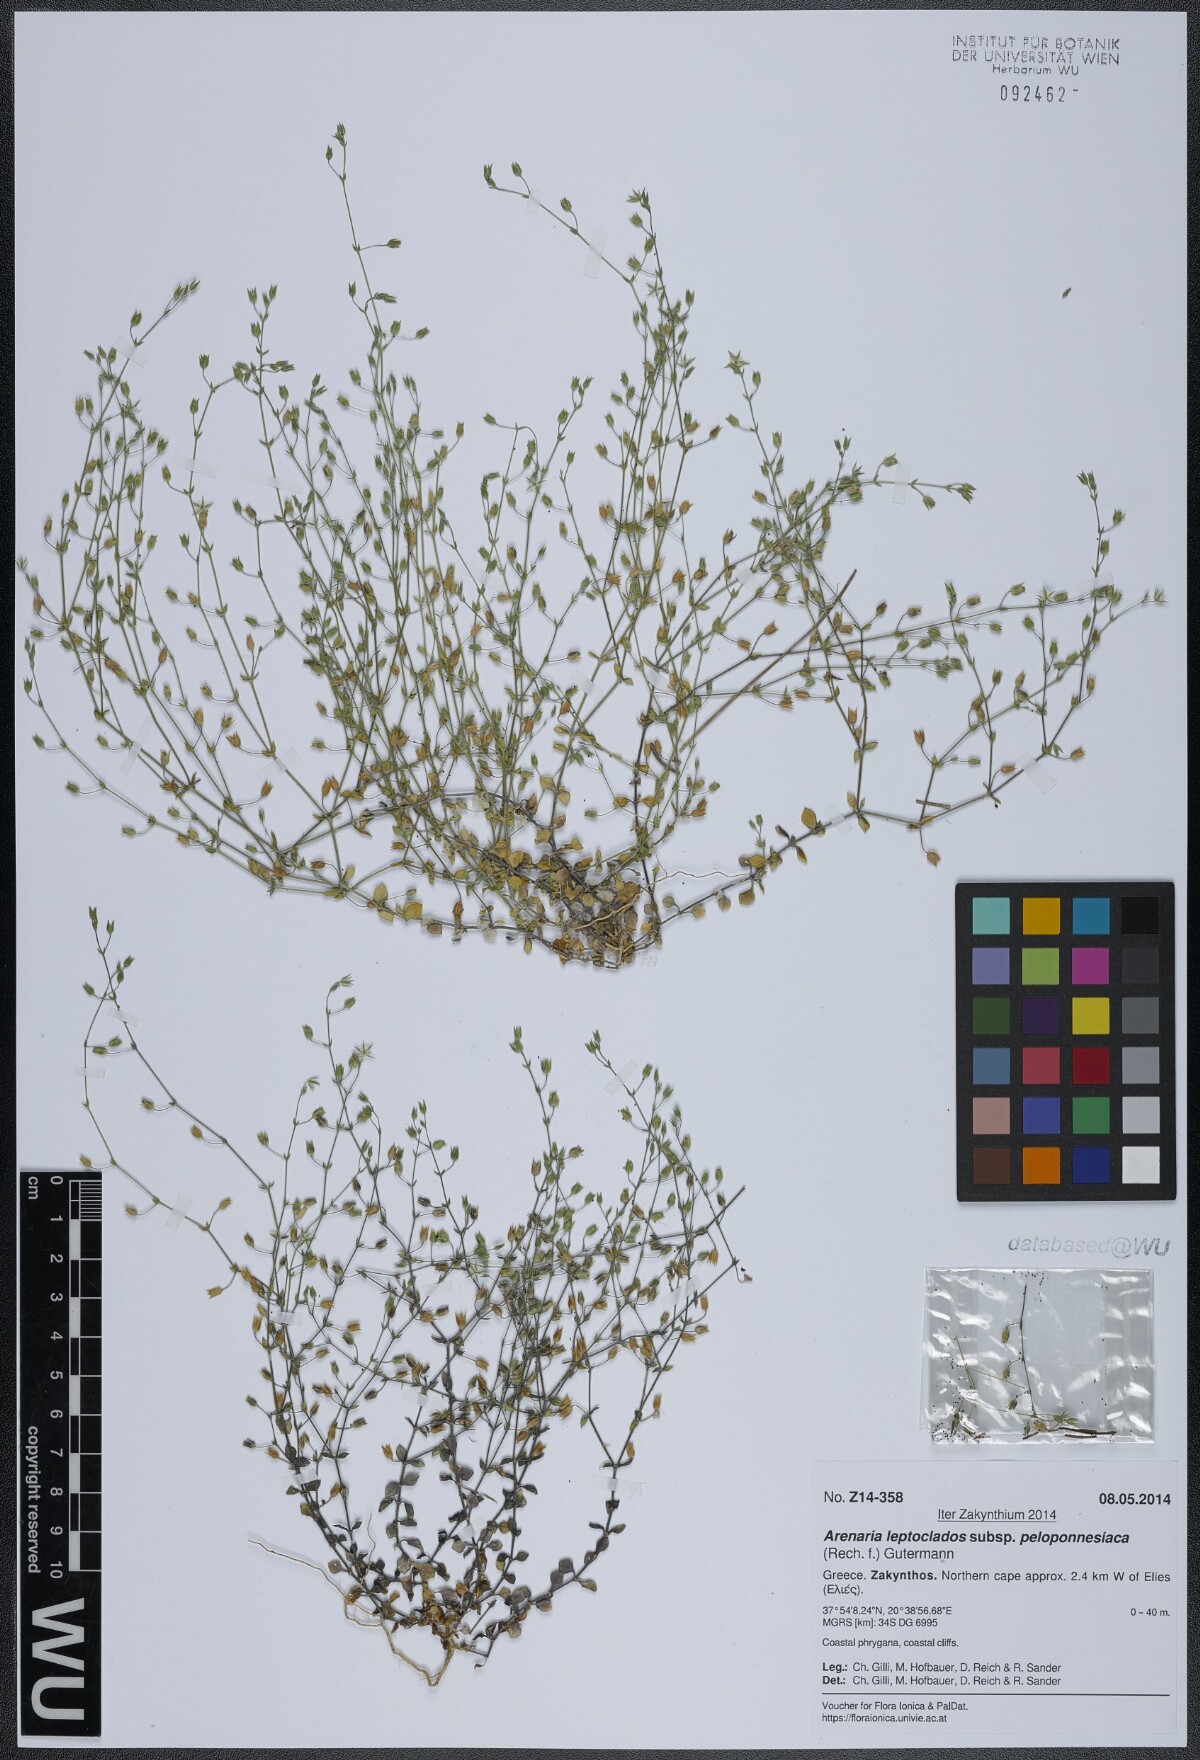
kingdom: Plantae
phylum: Tracheophyta
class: Magnoliopsida
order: Caryophyllales
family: Caryophyllaceae
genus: Arenaria
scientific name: Arenaria leptoclados
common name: Thyme-leaved sandwort
